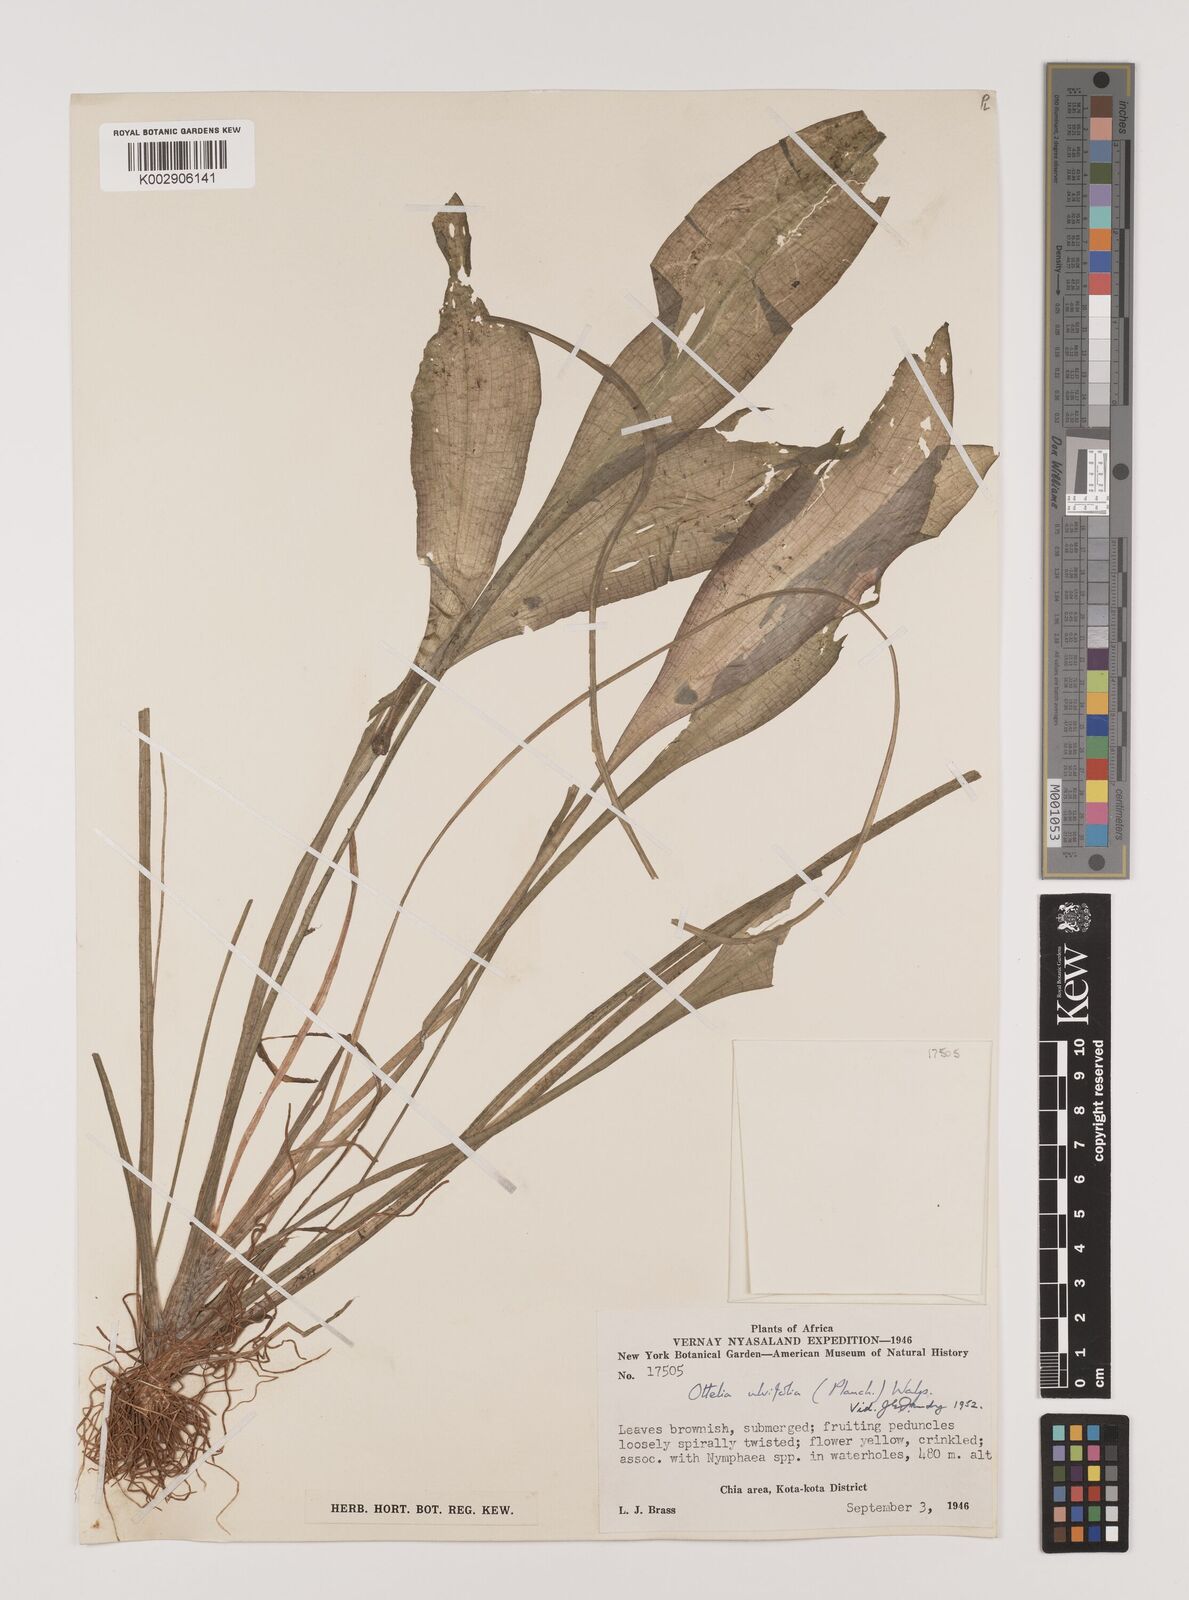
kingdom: Plantae
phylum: Tracheophyta
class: Liliopsida
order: Alismatales
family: Hydrocharitaceae
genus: Ottelia
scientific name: Ottelia ulvifolia
